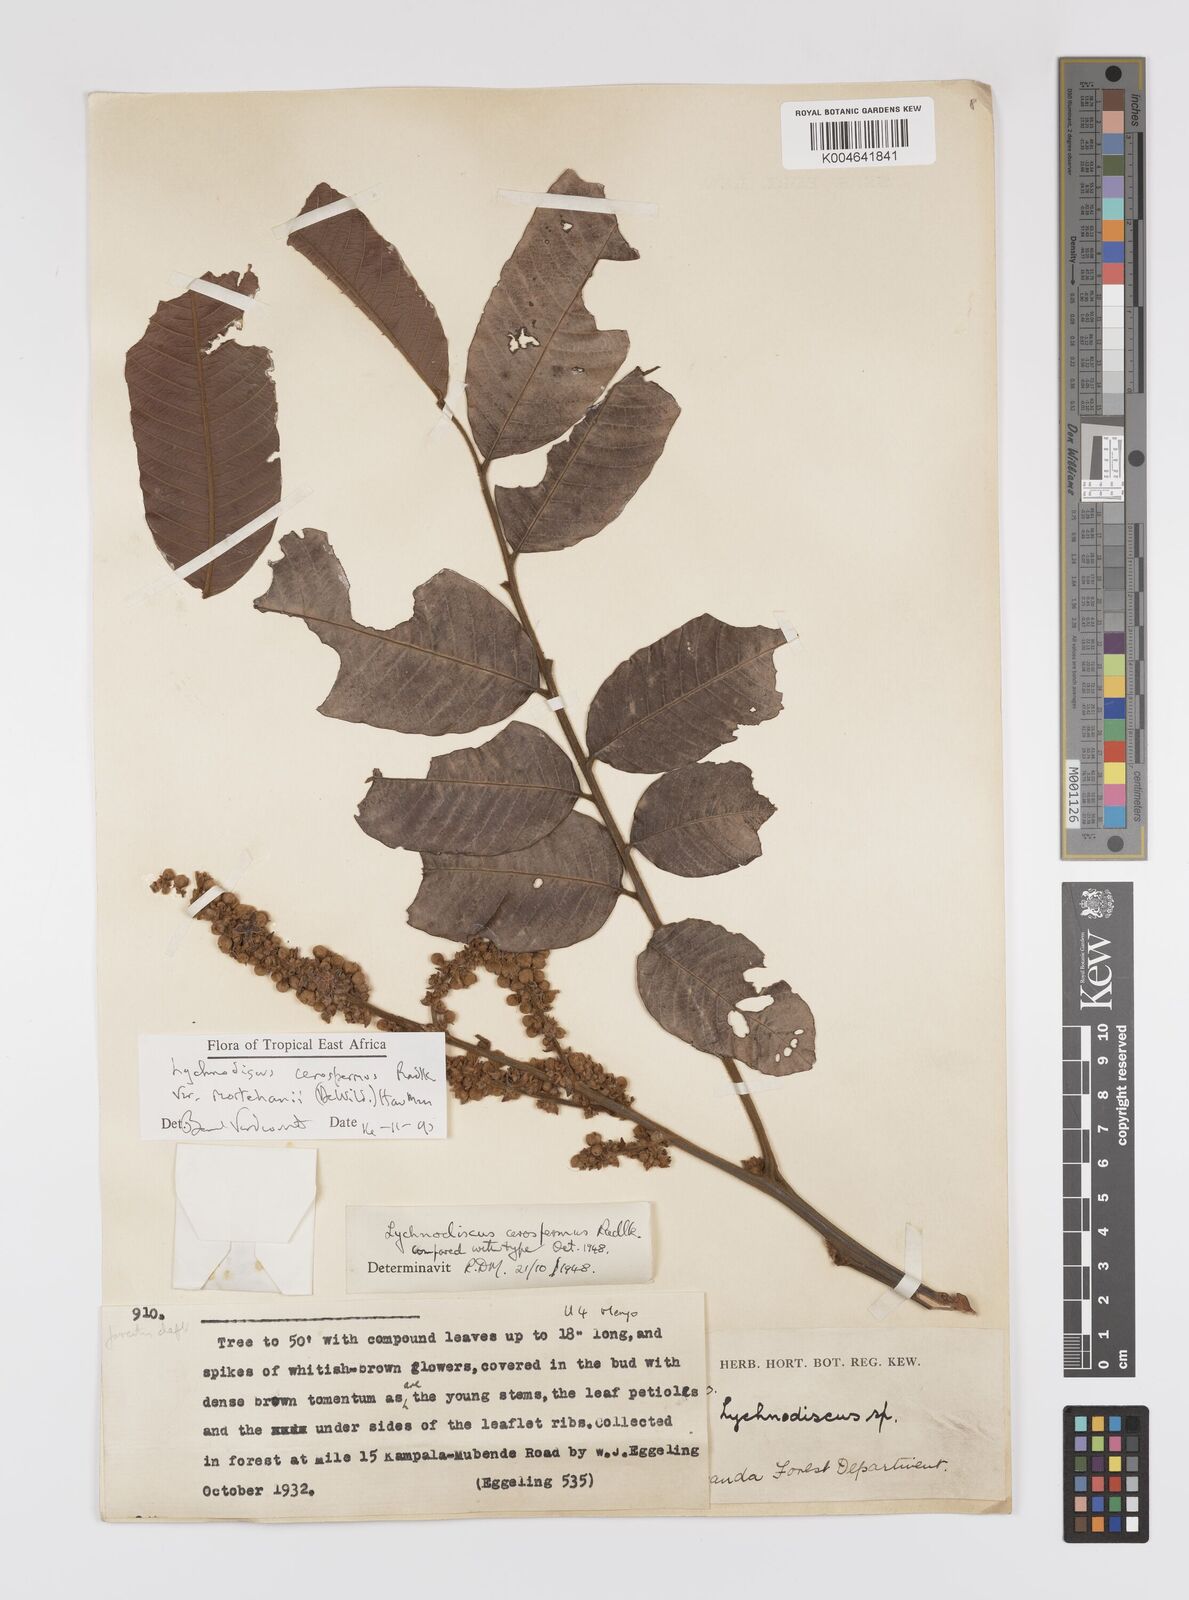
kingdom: Plantae
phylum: Tracheophyta
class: Magnoliopsida
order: Sapindales
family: Sapindaceae
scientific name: Sapindaceae
